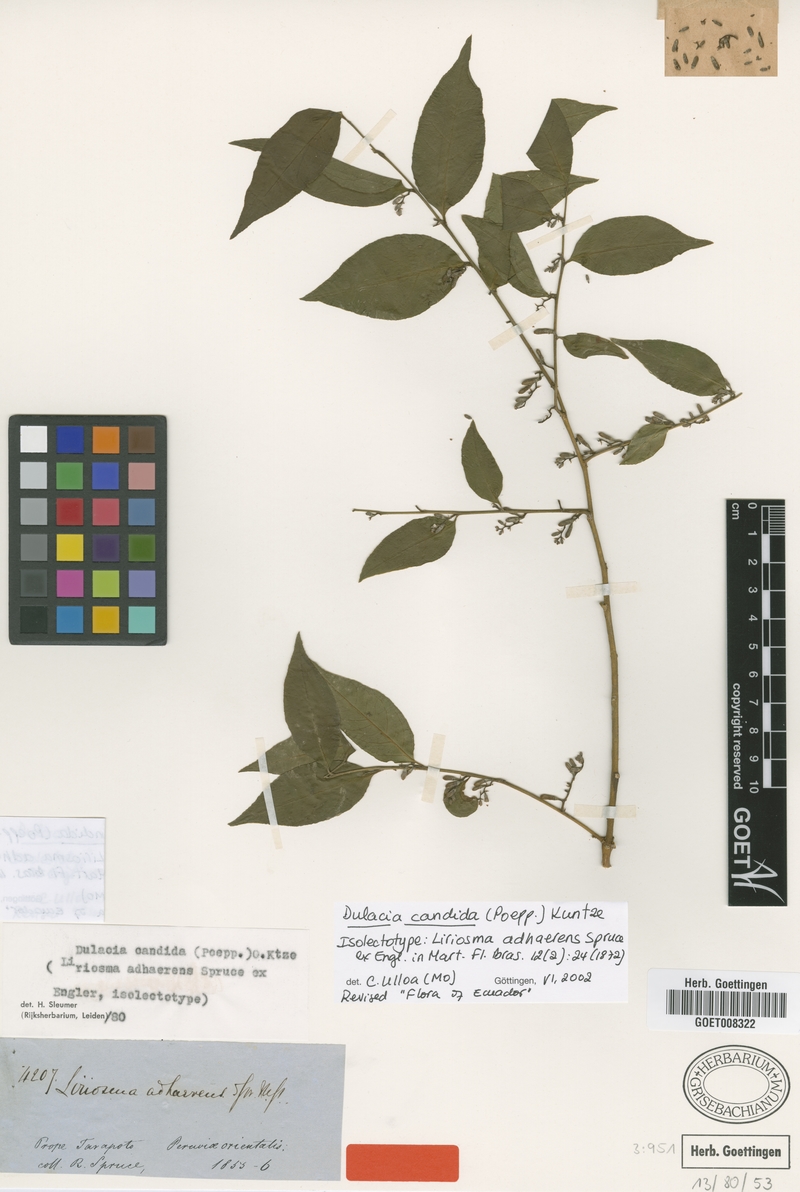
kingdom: Plantae
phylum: Tracheophyta
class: Magnoliopsida
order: Santalales
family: Olacaceae
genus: Dulacia
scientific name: Dulacia candida
